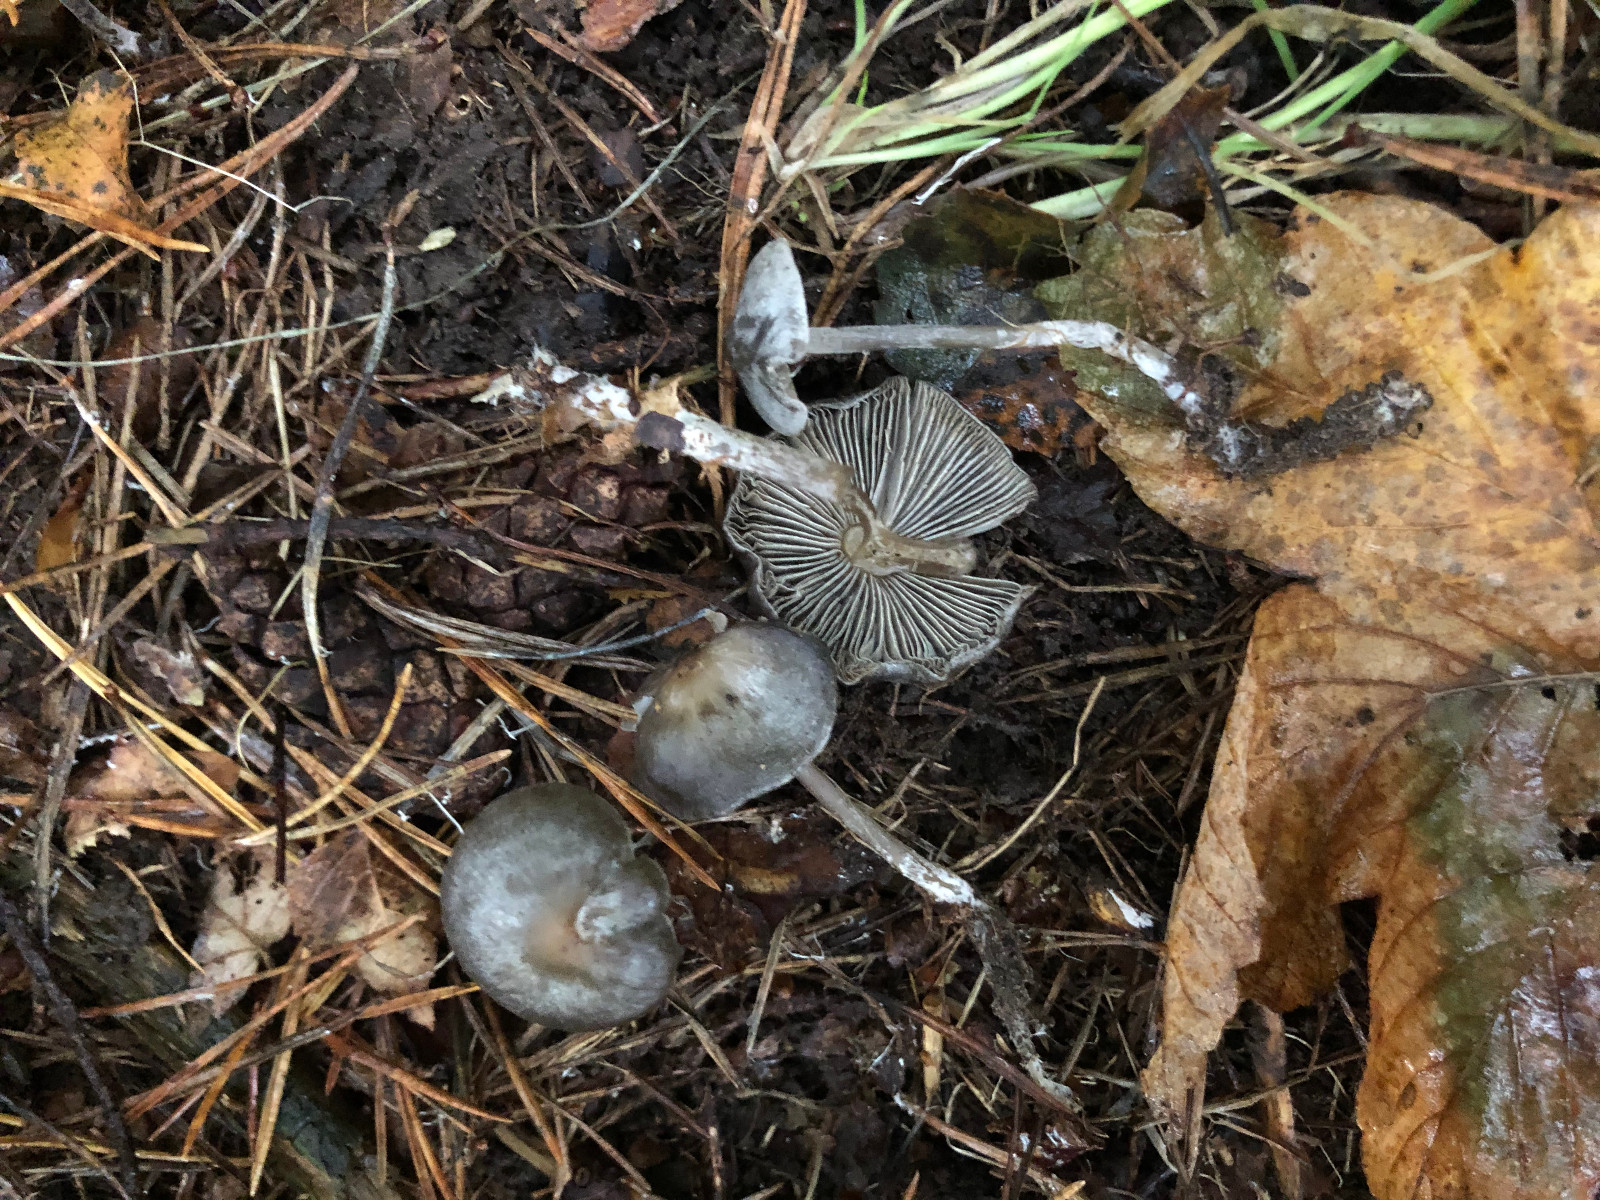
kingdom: Fungi
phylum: Basidiomycota
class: Agaricomycetes
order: Agaricales
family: Lyophyllaceae
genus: Tephrocybe
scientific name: Tephrocybe rancida
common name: mel-gråblad
